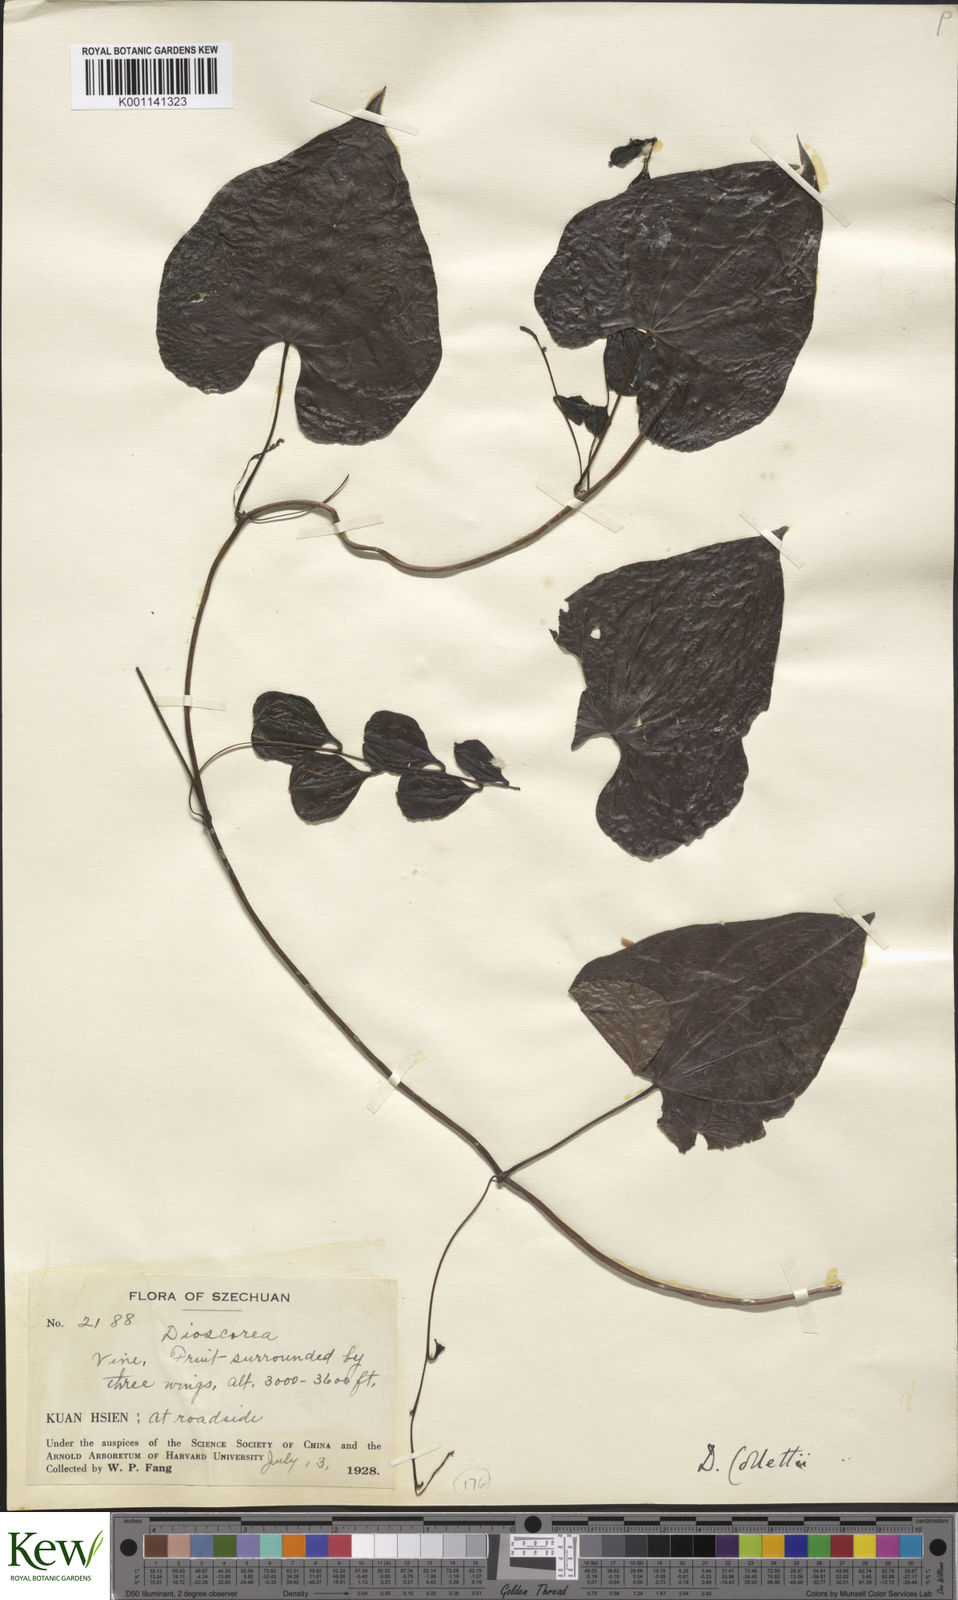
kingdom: Plantae
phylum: Tracheophyta
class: Liliopsida
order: Dioscoreales
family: Dioscoreaceae
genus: Dioscorea
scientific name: Dioscorea collettii
